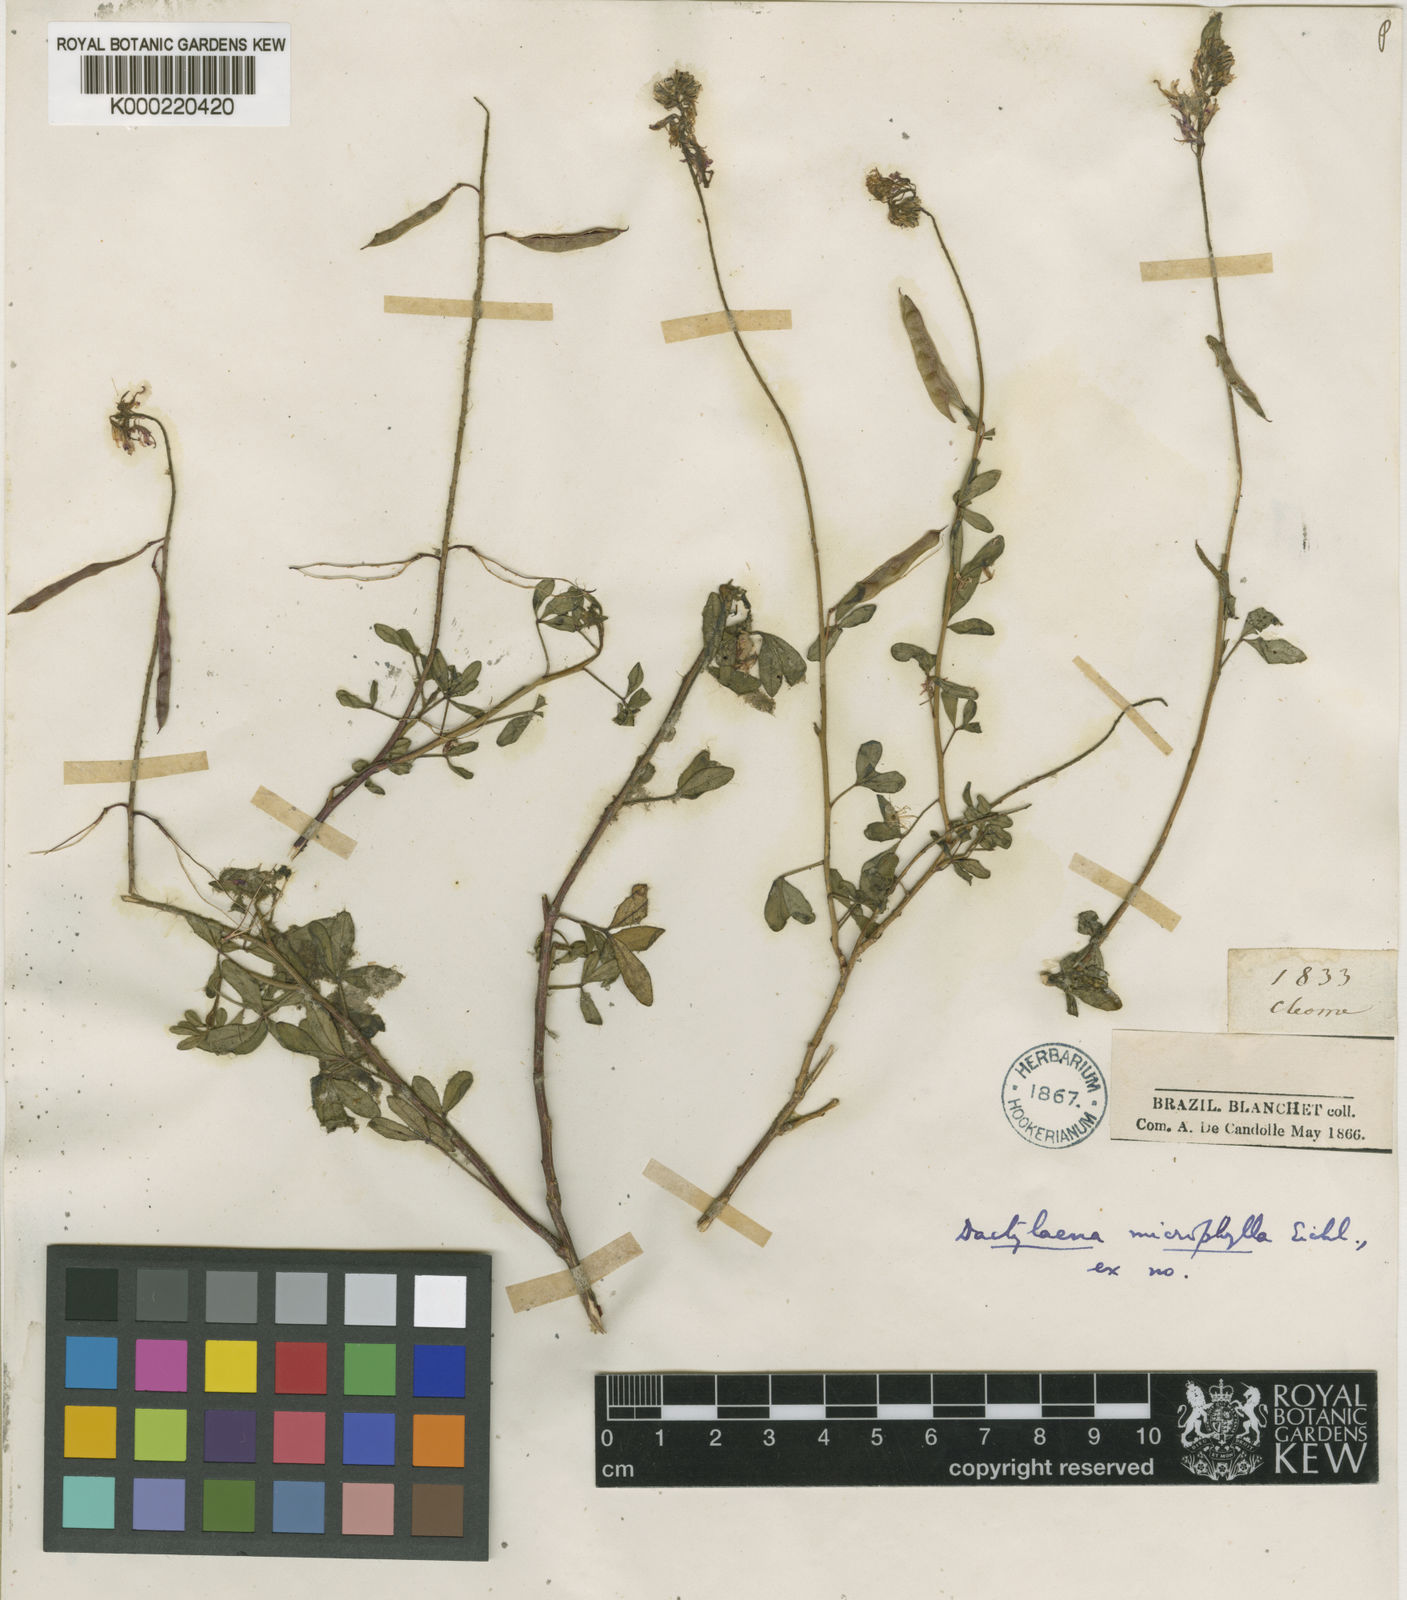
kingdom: Plantae
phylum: Tracheophyta
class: Magnoliopsida
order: Brassicales
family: Cleomaceae
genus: Dactylaena
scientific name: Dactylaena microphylla
